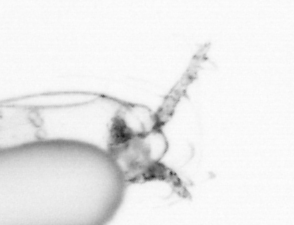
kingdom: Animalia
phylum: Arthropoda
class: Copepoda
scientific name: Copepoda
